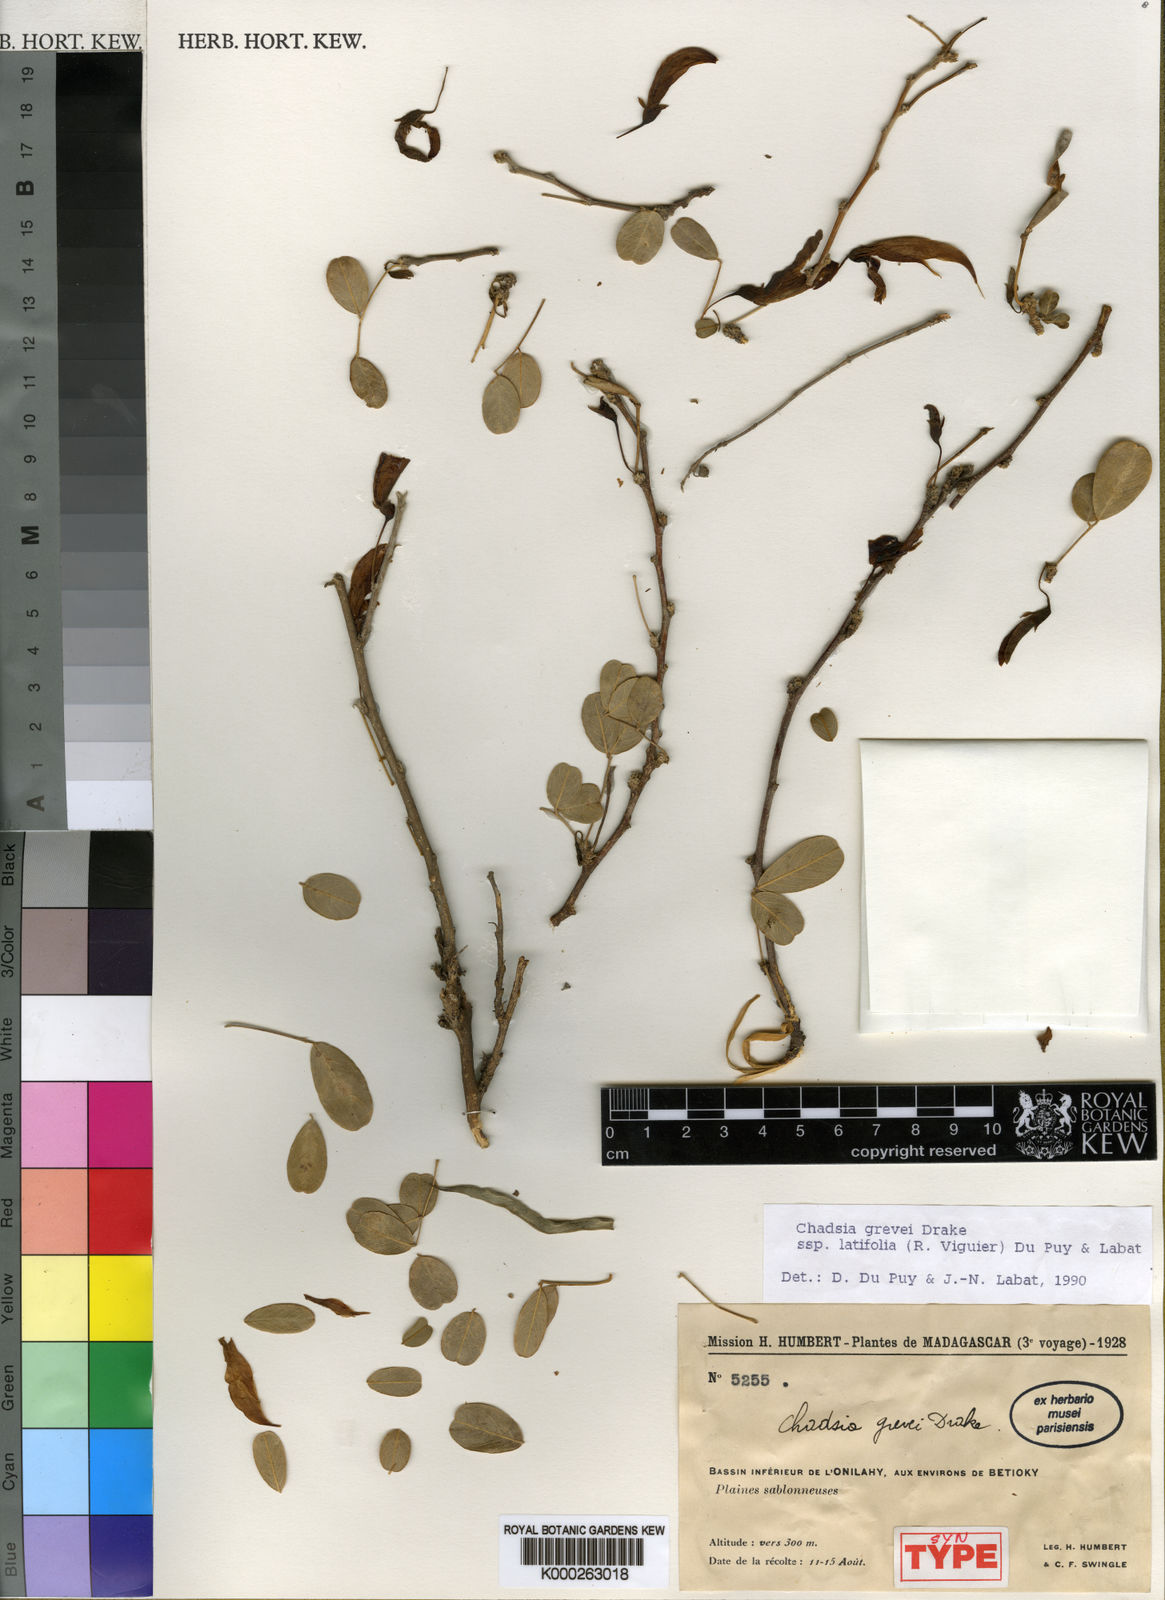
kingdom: Plantae
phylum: Tracheophyta
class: Magnoliopsida
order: Fabales
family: Fabaceae
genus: Chadsia
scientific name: Chadsia grevei
